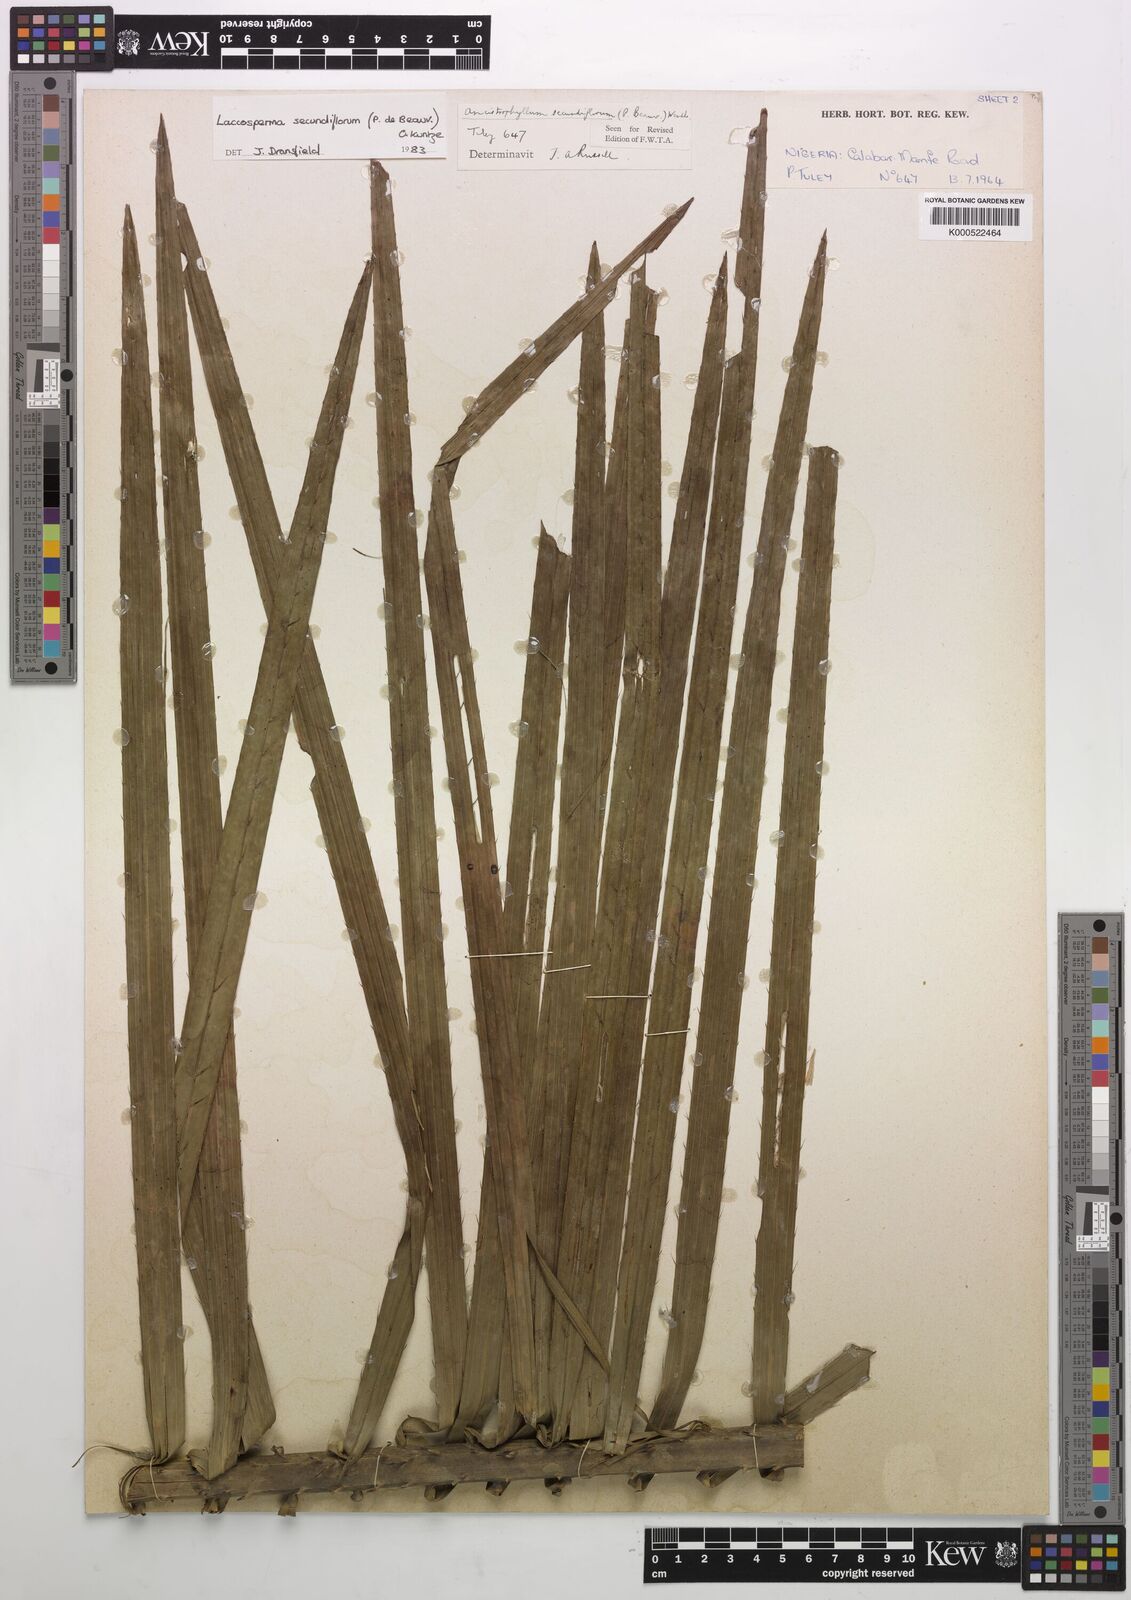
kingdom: Plantae
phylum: Tracheophyta
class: Liliopsida
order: Arecales
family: Arecaceae
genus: Laccosperma
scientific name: Laccosperma secundiflorum
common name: Rattan
